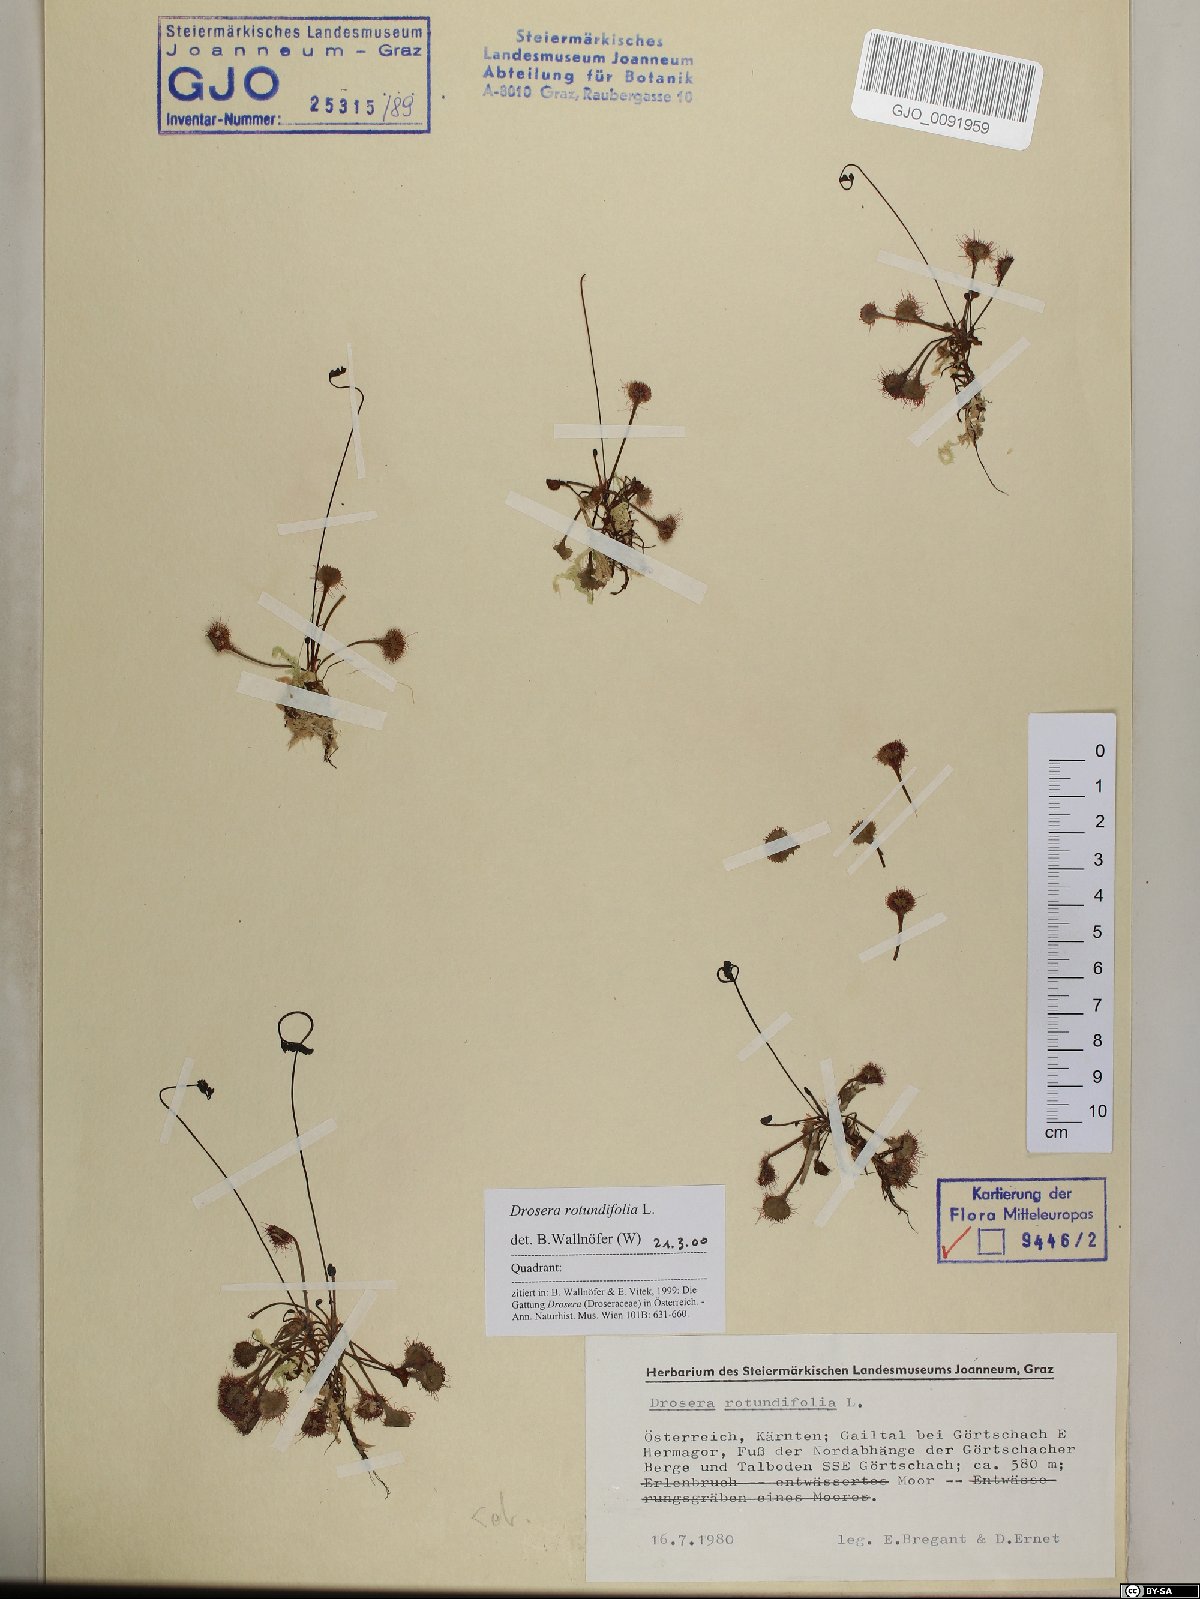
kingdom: Plantae
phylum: Tracheophyta
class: Magnoliopsida
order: Caryophyllales
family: Droseraceae
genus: Drosera
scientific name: Drosera rotundifolia
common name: Round-leaved sundew
